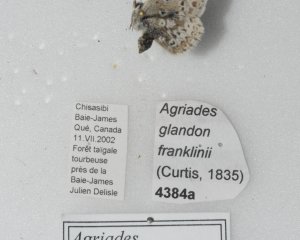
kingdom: Animalia
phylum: Arthropoda
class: Insecta
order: Lepidoptera
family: Lycaenidae
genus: Agriades
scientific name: Agriades glandon
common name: Arctic Blue
